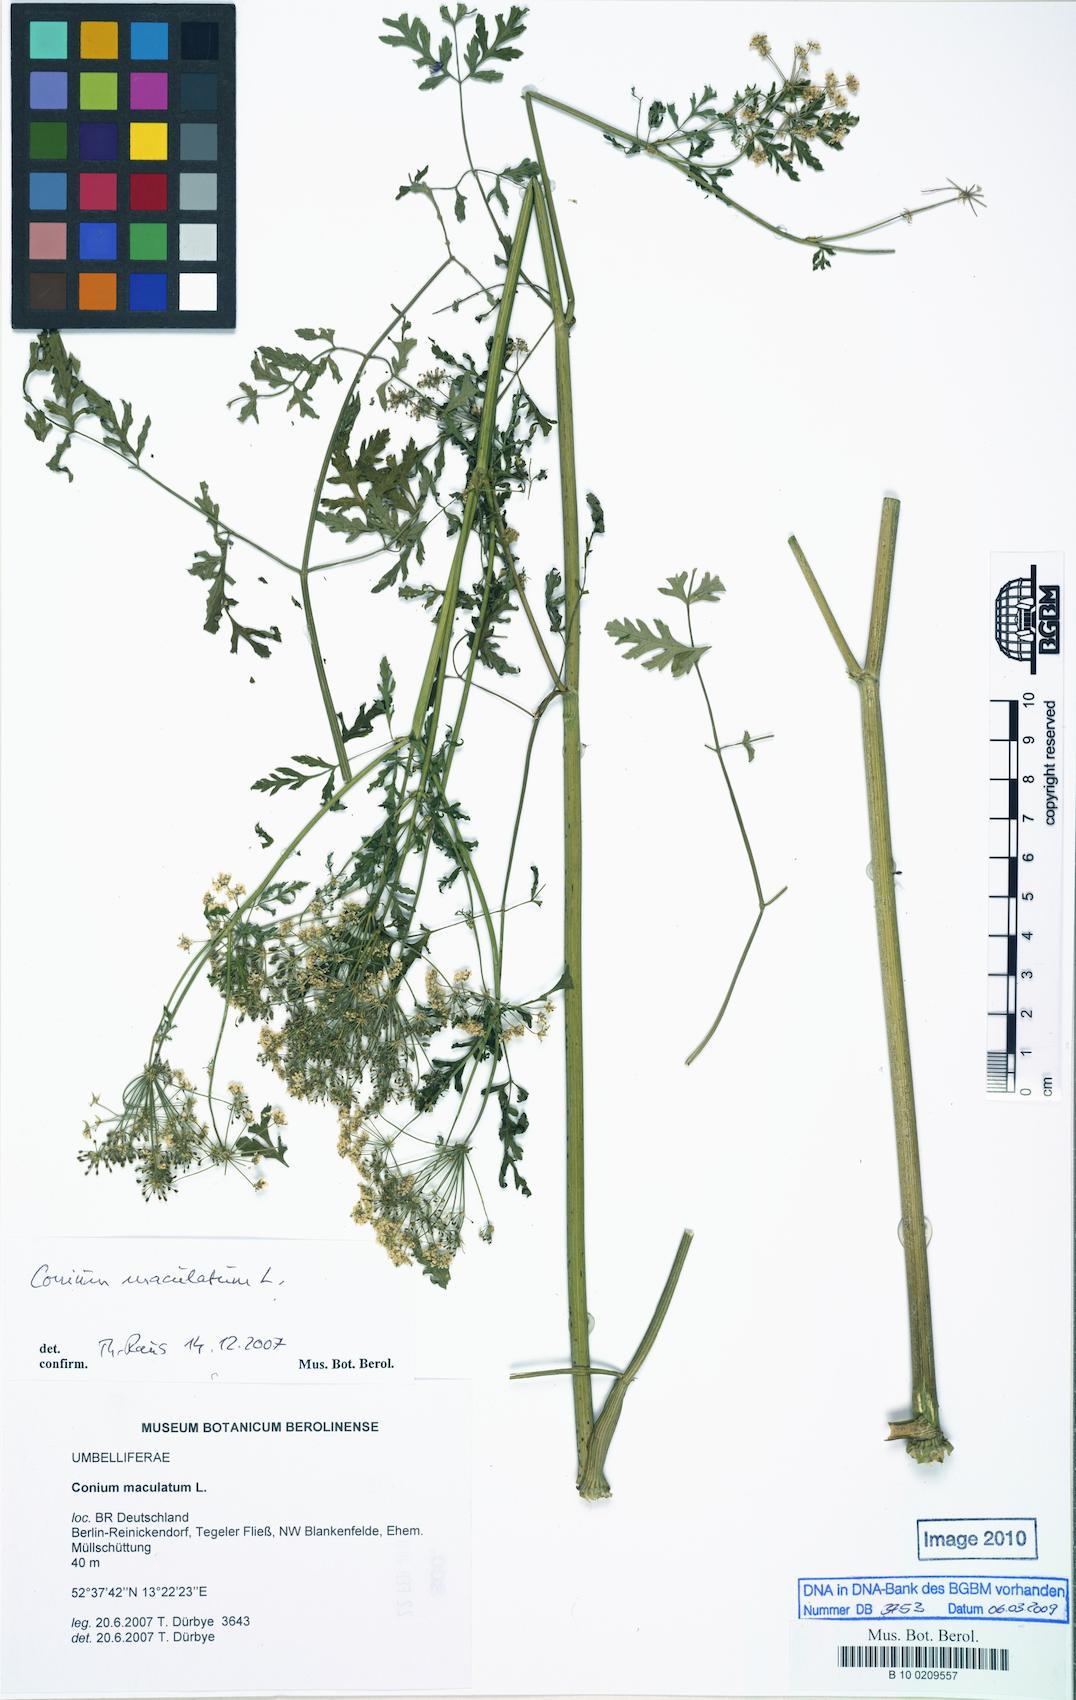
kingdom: Plantae
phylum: Tracheophyta
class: Magnoliopsida
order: Apiales
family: Apiaceae
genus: Conium
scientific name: Conium maculatum
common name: Hemlock
